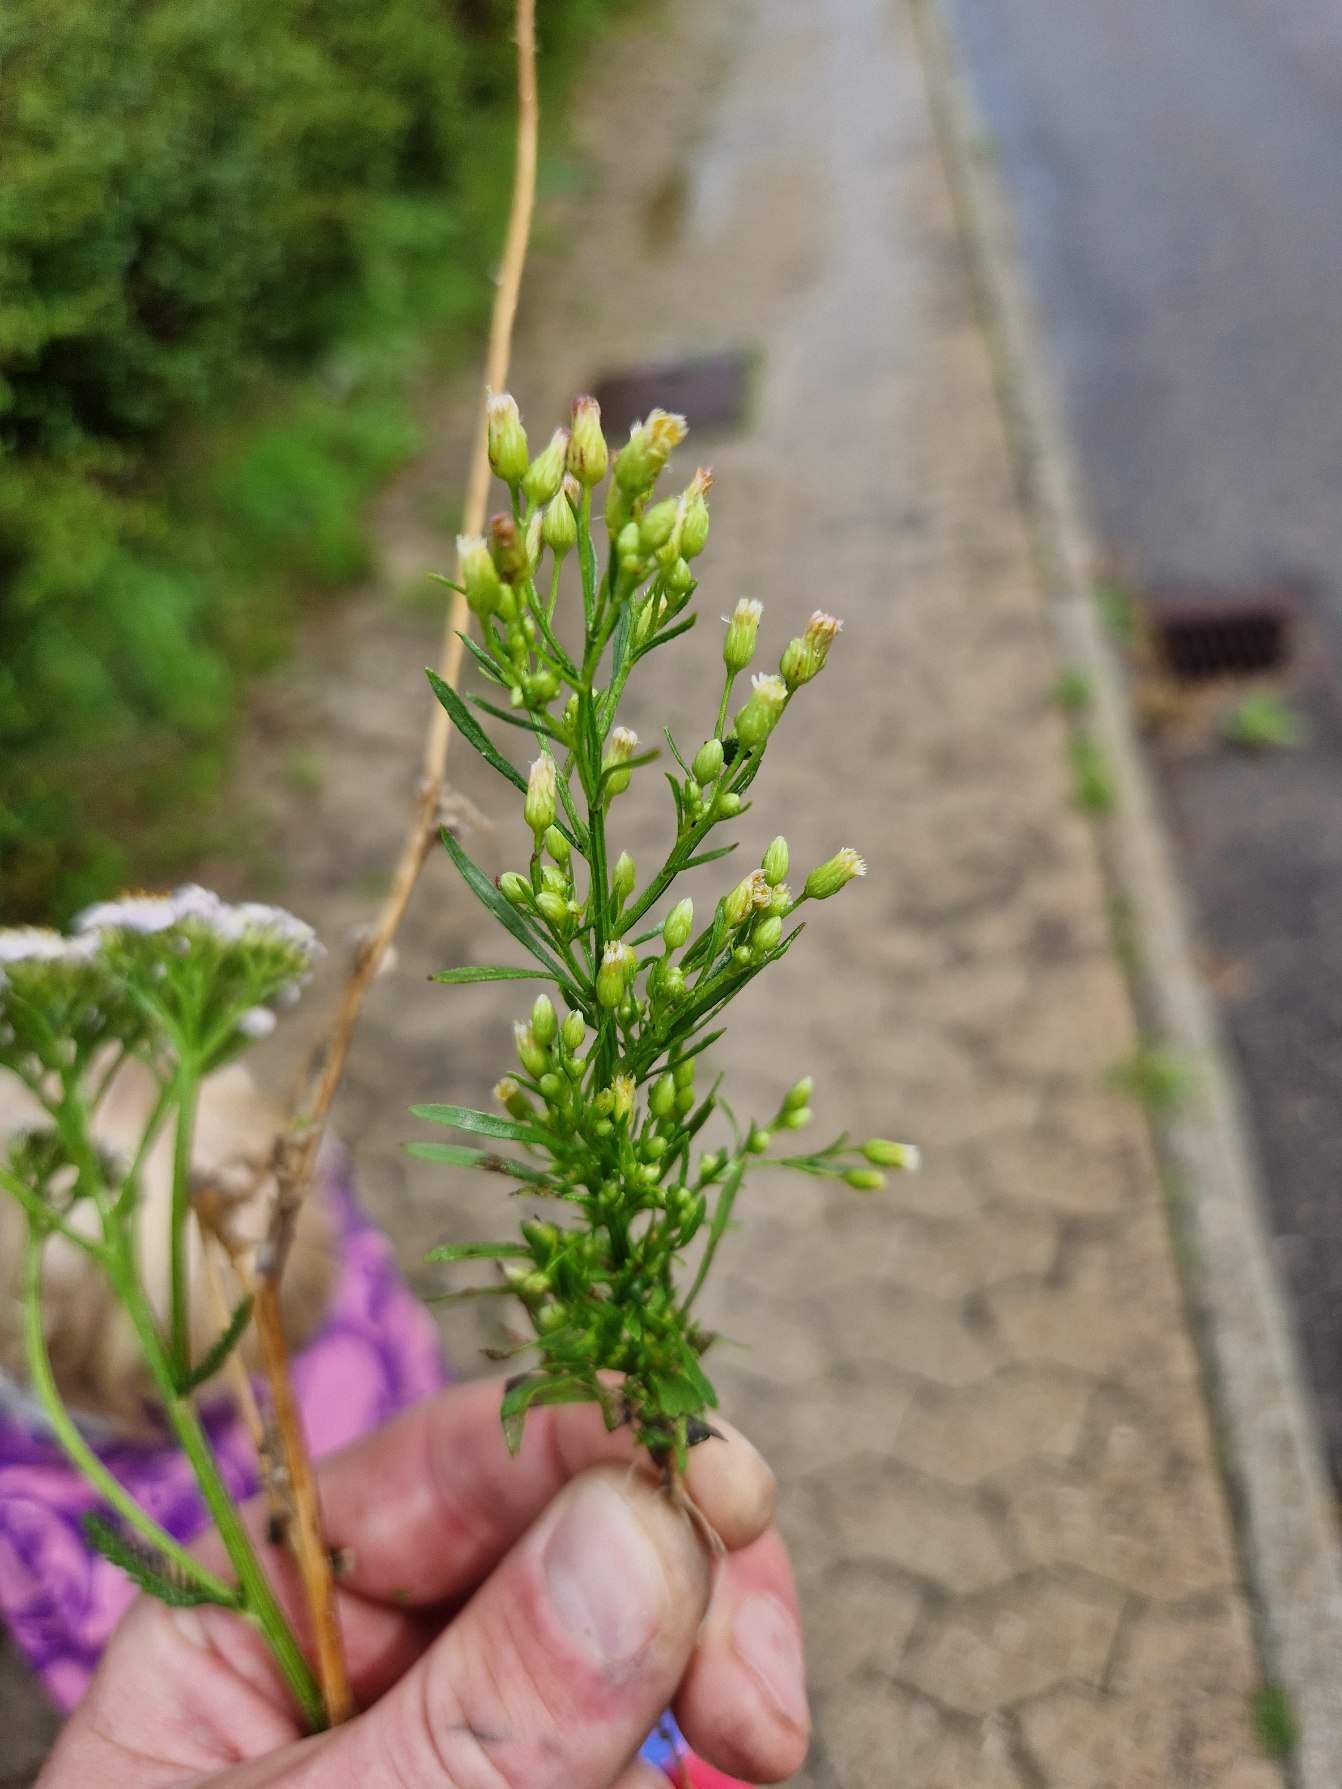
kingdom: Plantae
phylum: Tracheophyta
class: Magnoliopsida
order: Asterales
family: Asteraceae
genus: Erigeron
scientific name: Erigeron canadensis
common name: Kanadisk bakkestjerne
